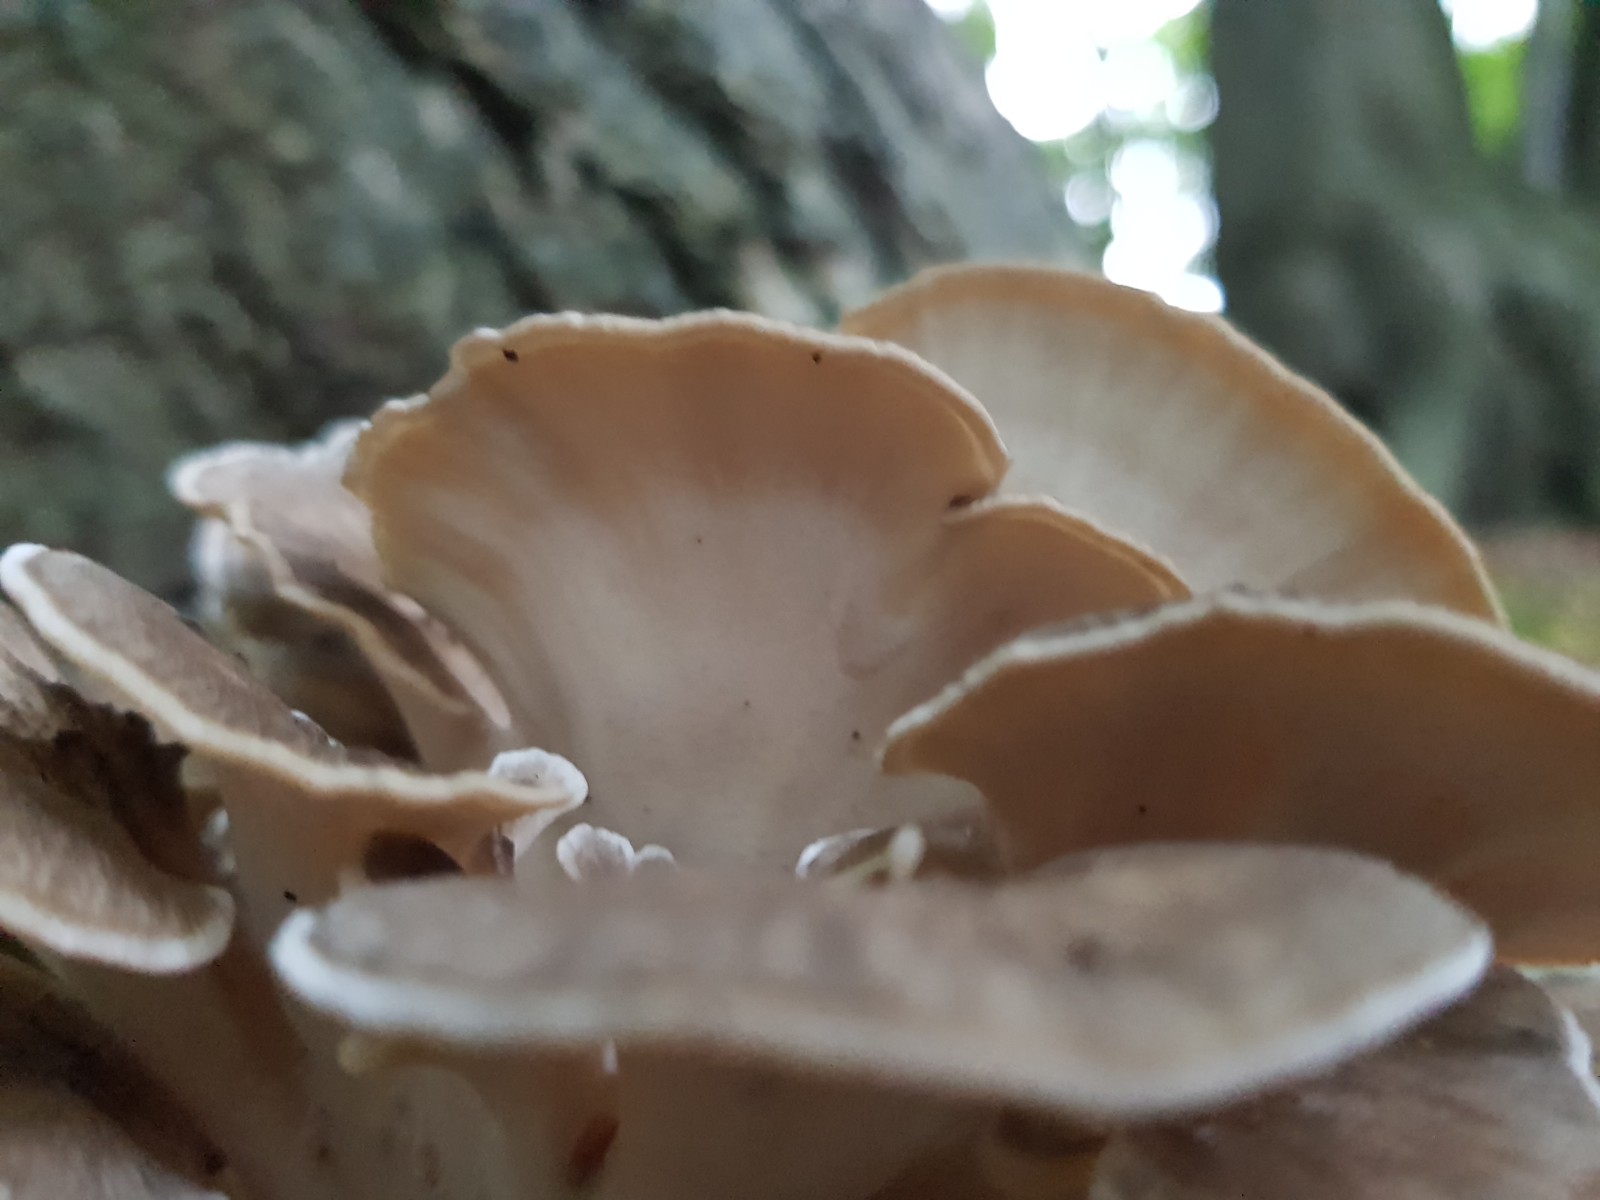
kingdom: Fungi
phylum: Basidiomycota
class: Agaricomycetes
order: Polyporales
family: Grifolaceae
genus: Grifola
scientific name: Grifola frondosa
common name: tueporesvamp
